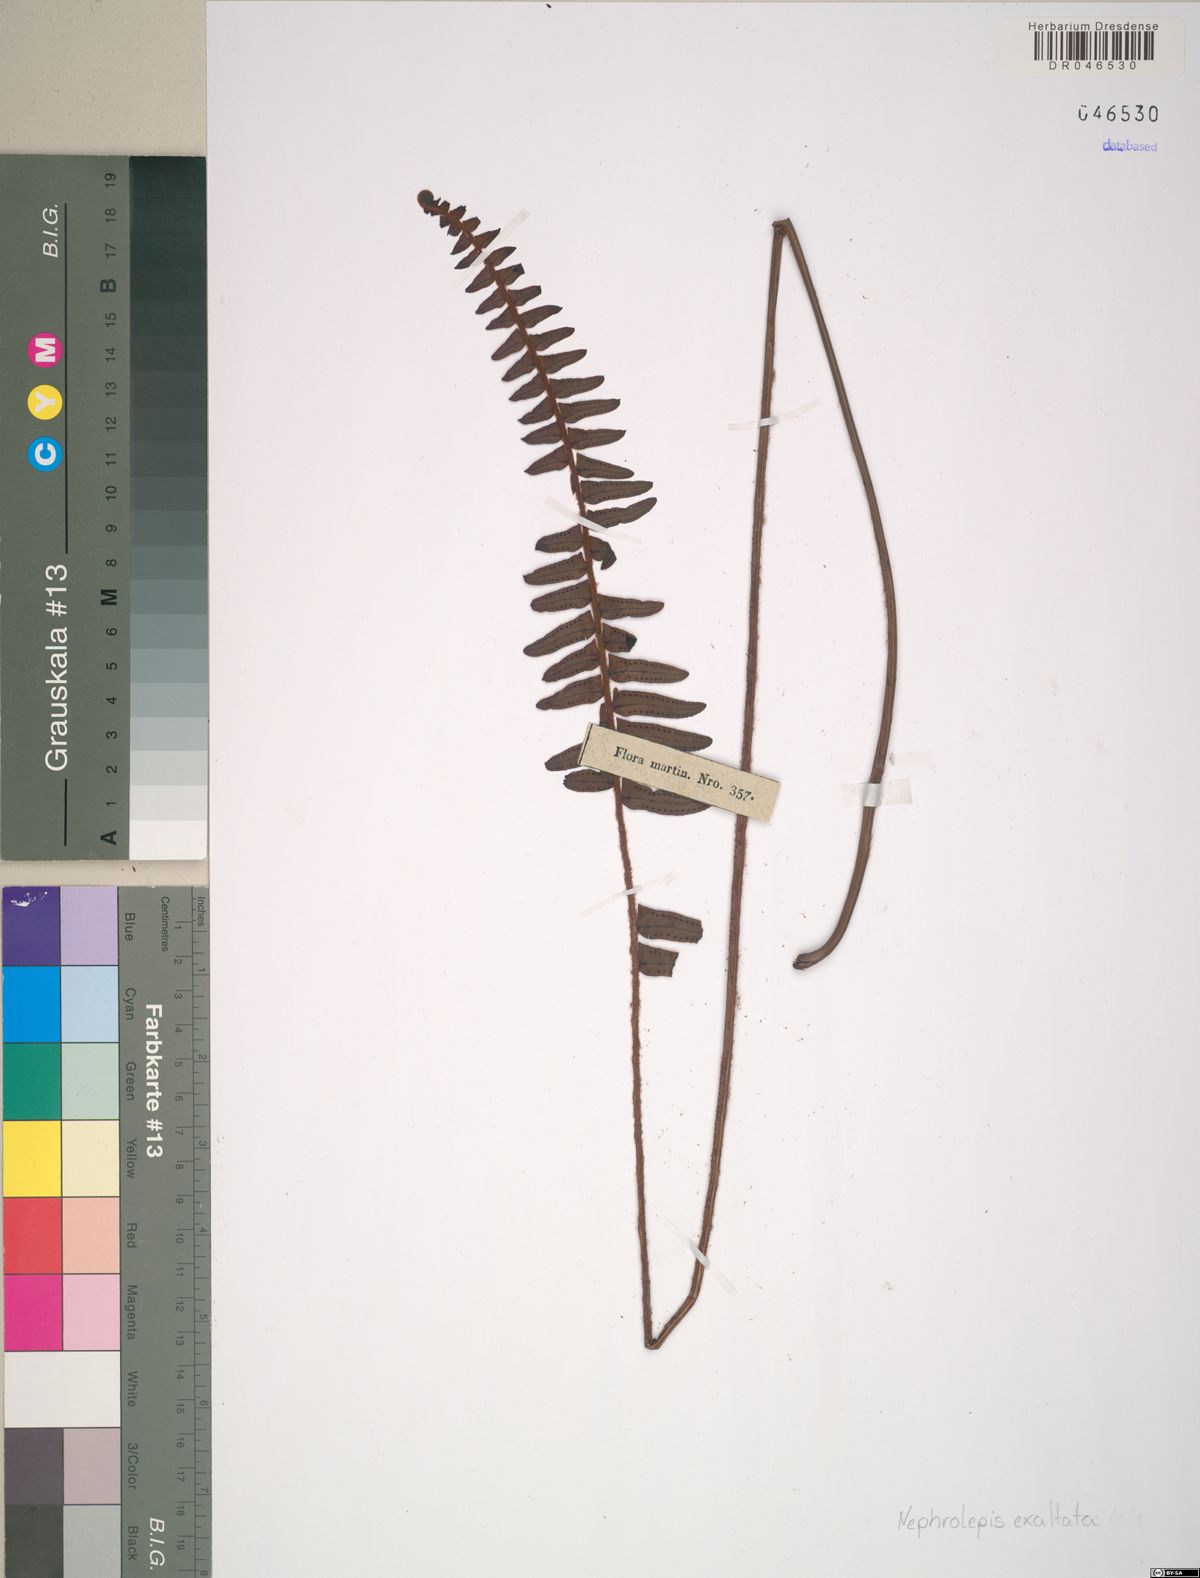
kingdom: Plantae
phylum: Tracheophyta
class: Polypodiopsida
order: Polypodiales
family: Nephrolepidaceae
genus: Nephrolepis
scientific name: Nephrolepis exaltata
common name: Sword fern
